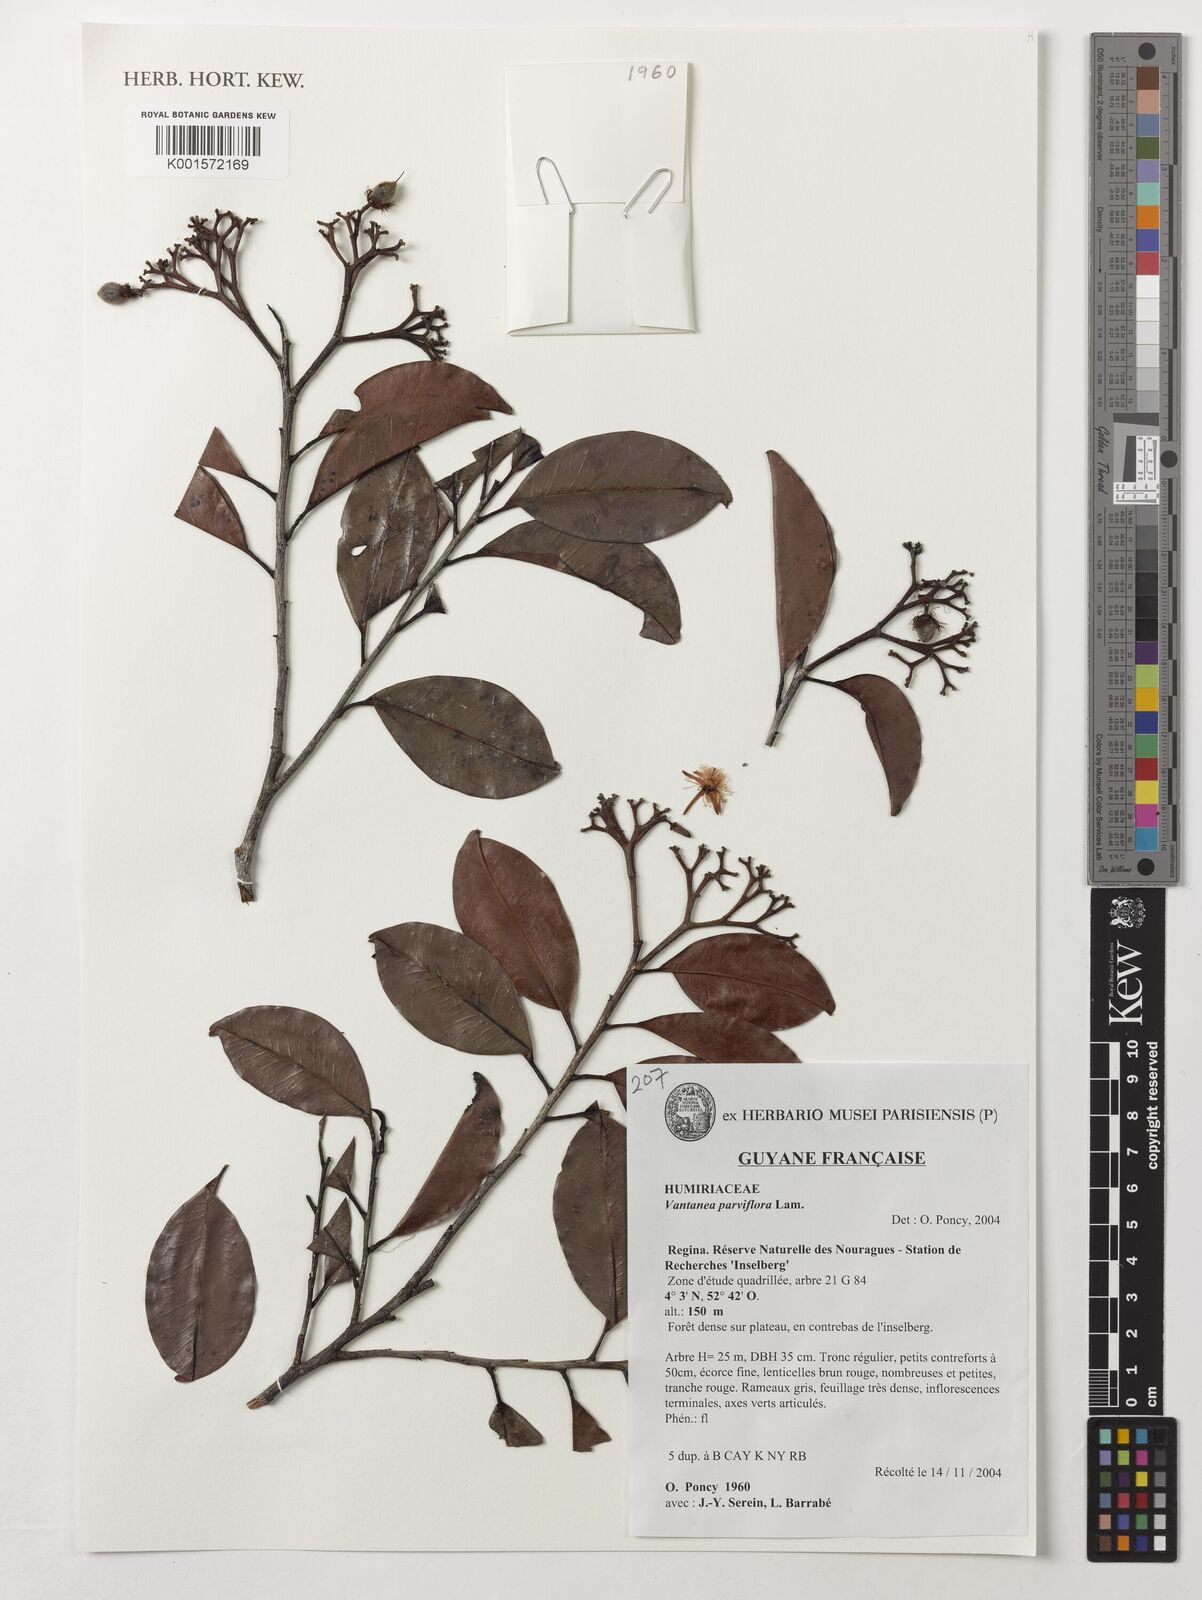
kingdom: Plantae
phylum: Tracheophyta
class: Magnoliopsida
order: Malpighiales
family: Humiriaceae
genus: Vantanea
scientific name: Vantanea parviflora
